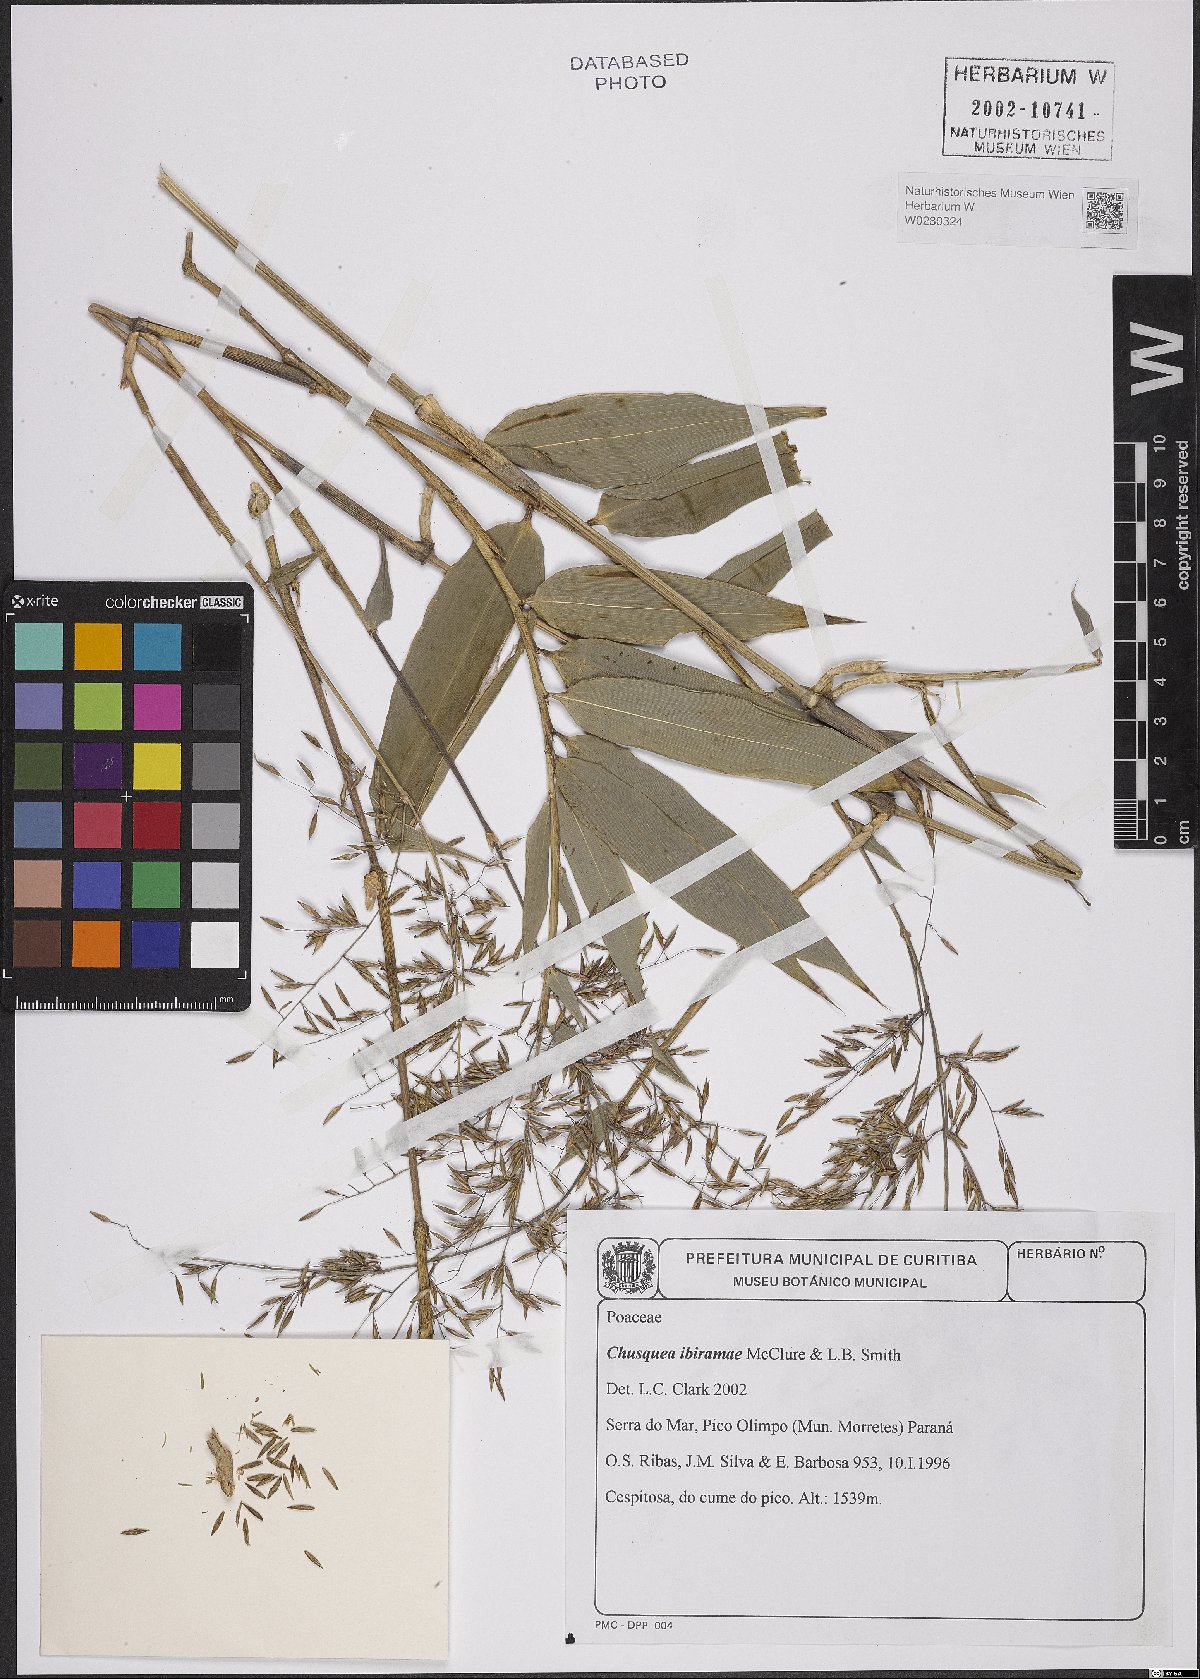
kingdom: Plantae
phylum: Tracheophyta
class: Liliopsida
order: Poales
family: Poaceae
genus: Chusquea
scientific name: Chusquea ibiramae
